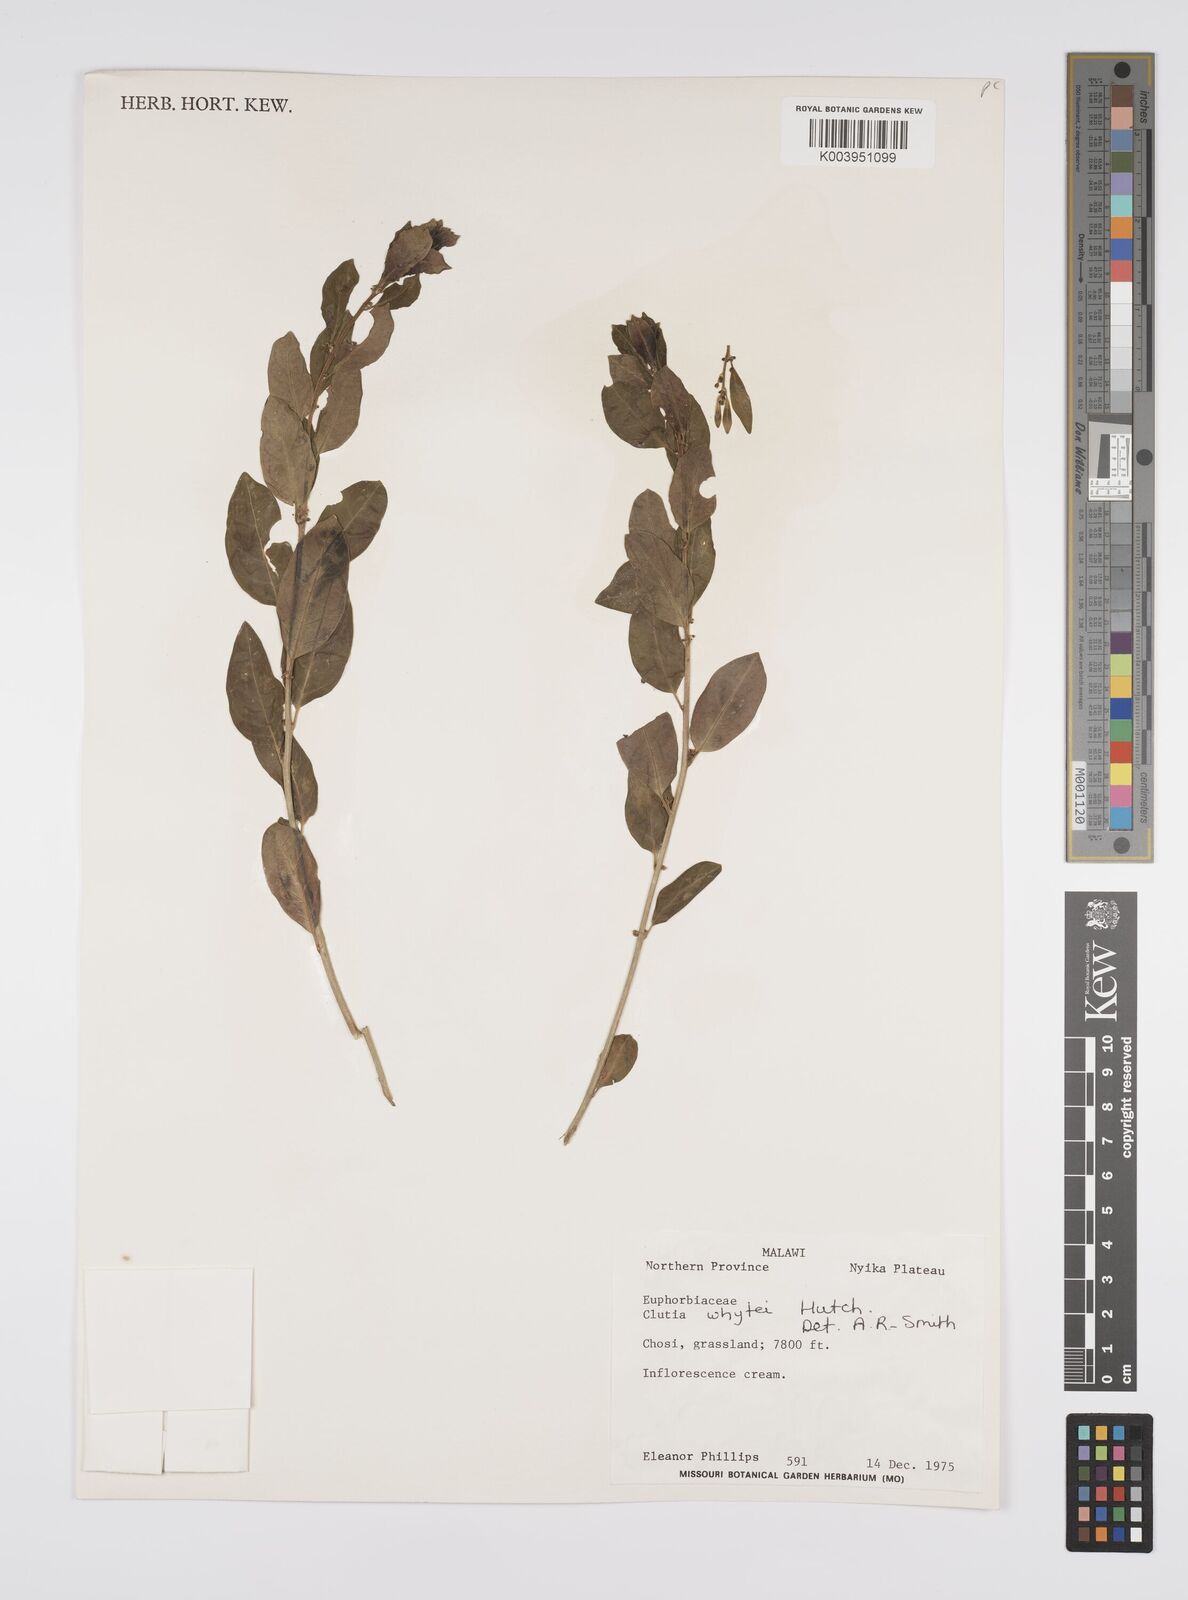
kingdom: Plantae
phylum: Tracheophyta
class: Magnoliopsida
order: Malpighiales
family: Peraceae
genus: Clutia
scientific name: Clutia whytei
